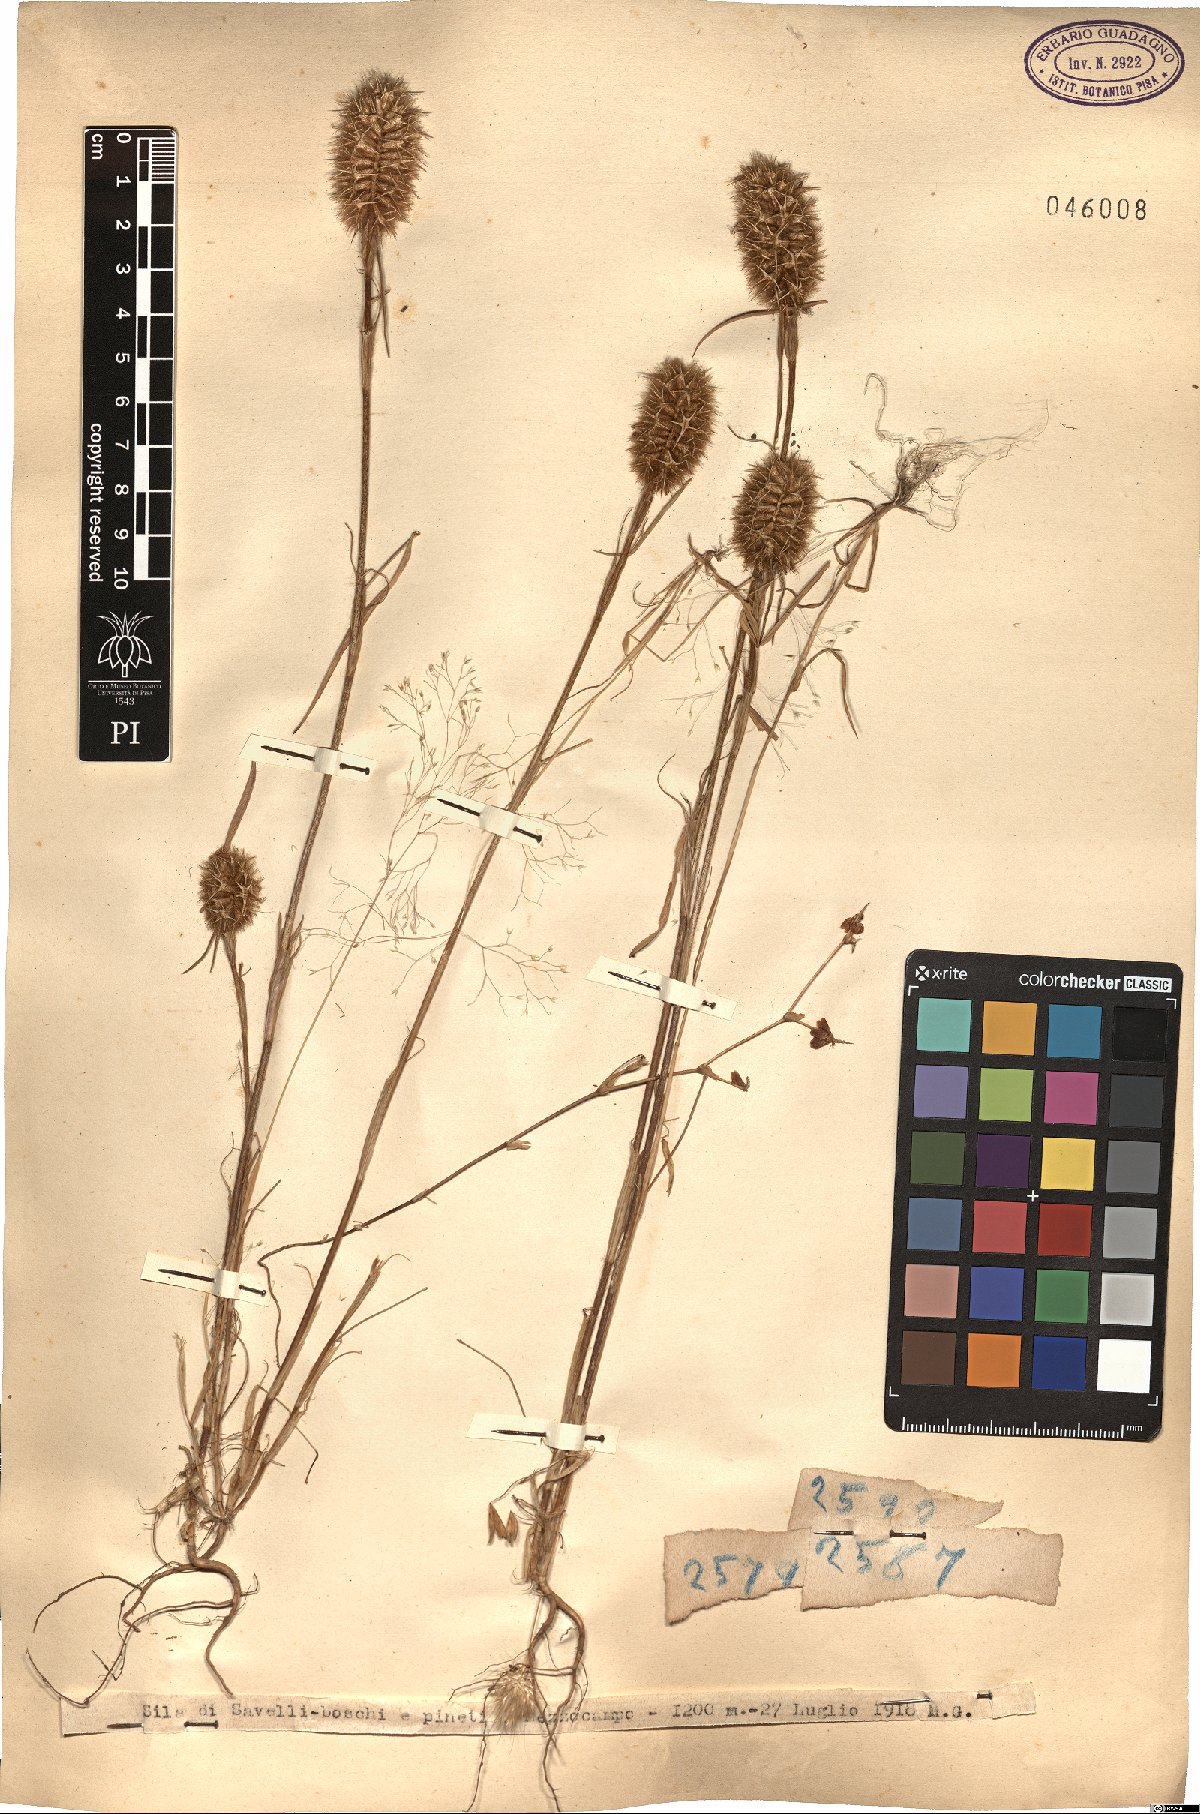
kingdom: Plantae
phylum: Tracheophyta
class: Magnoliopsida
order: Fabales
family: Fabaceae
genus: Trifolium
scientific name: Trifolium
